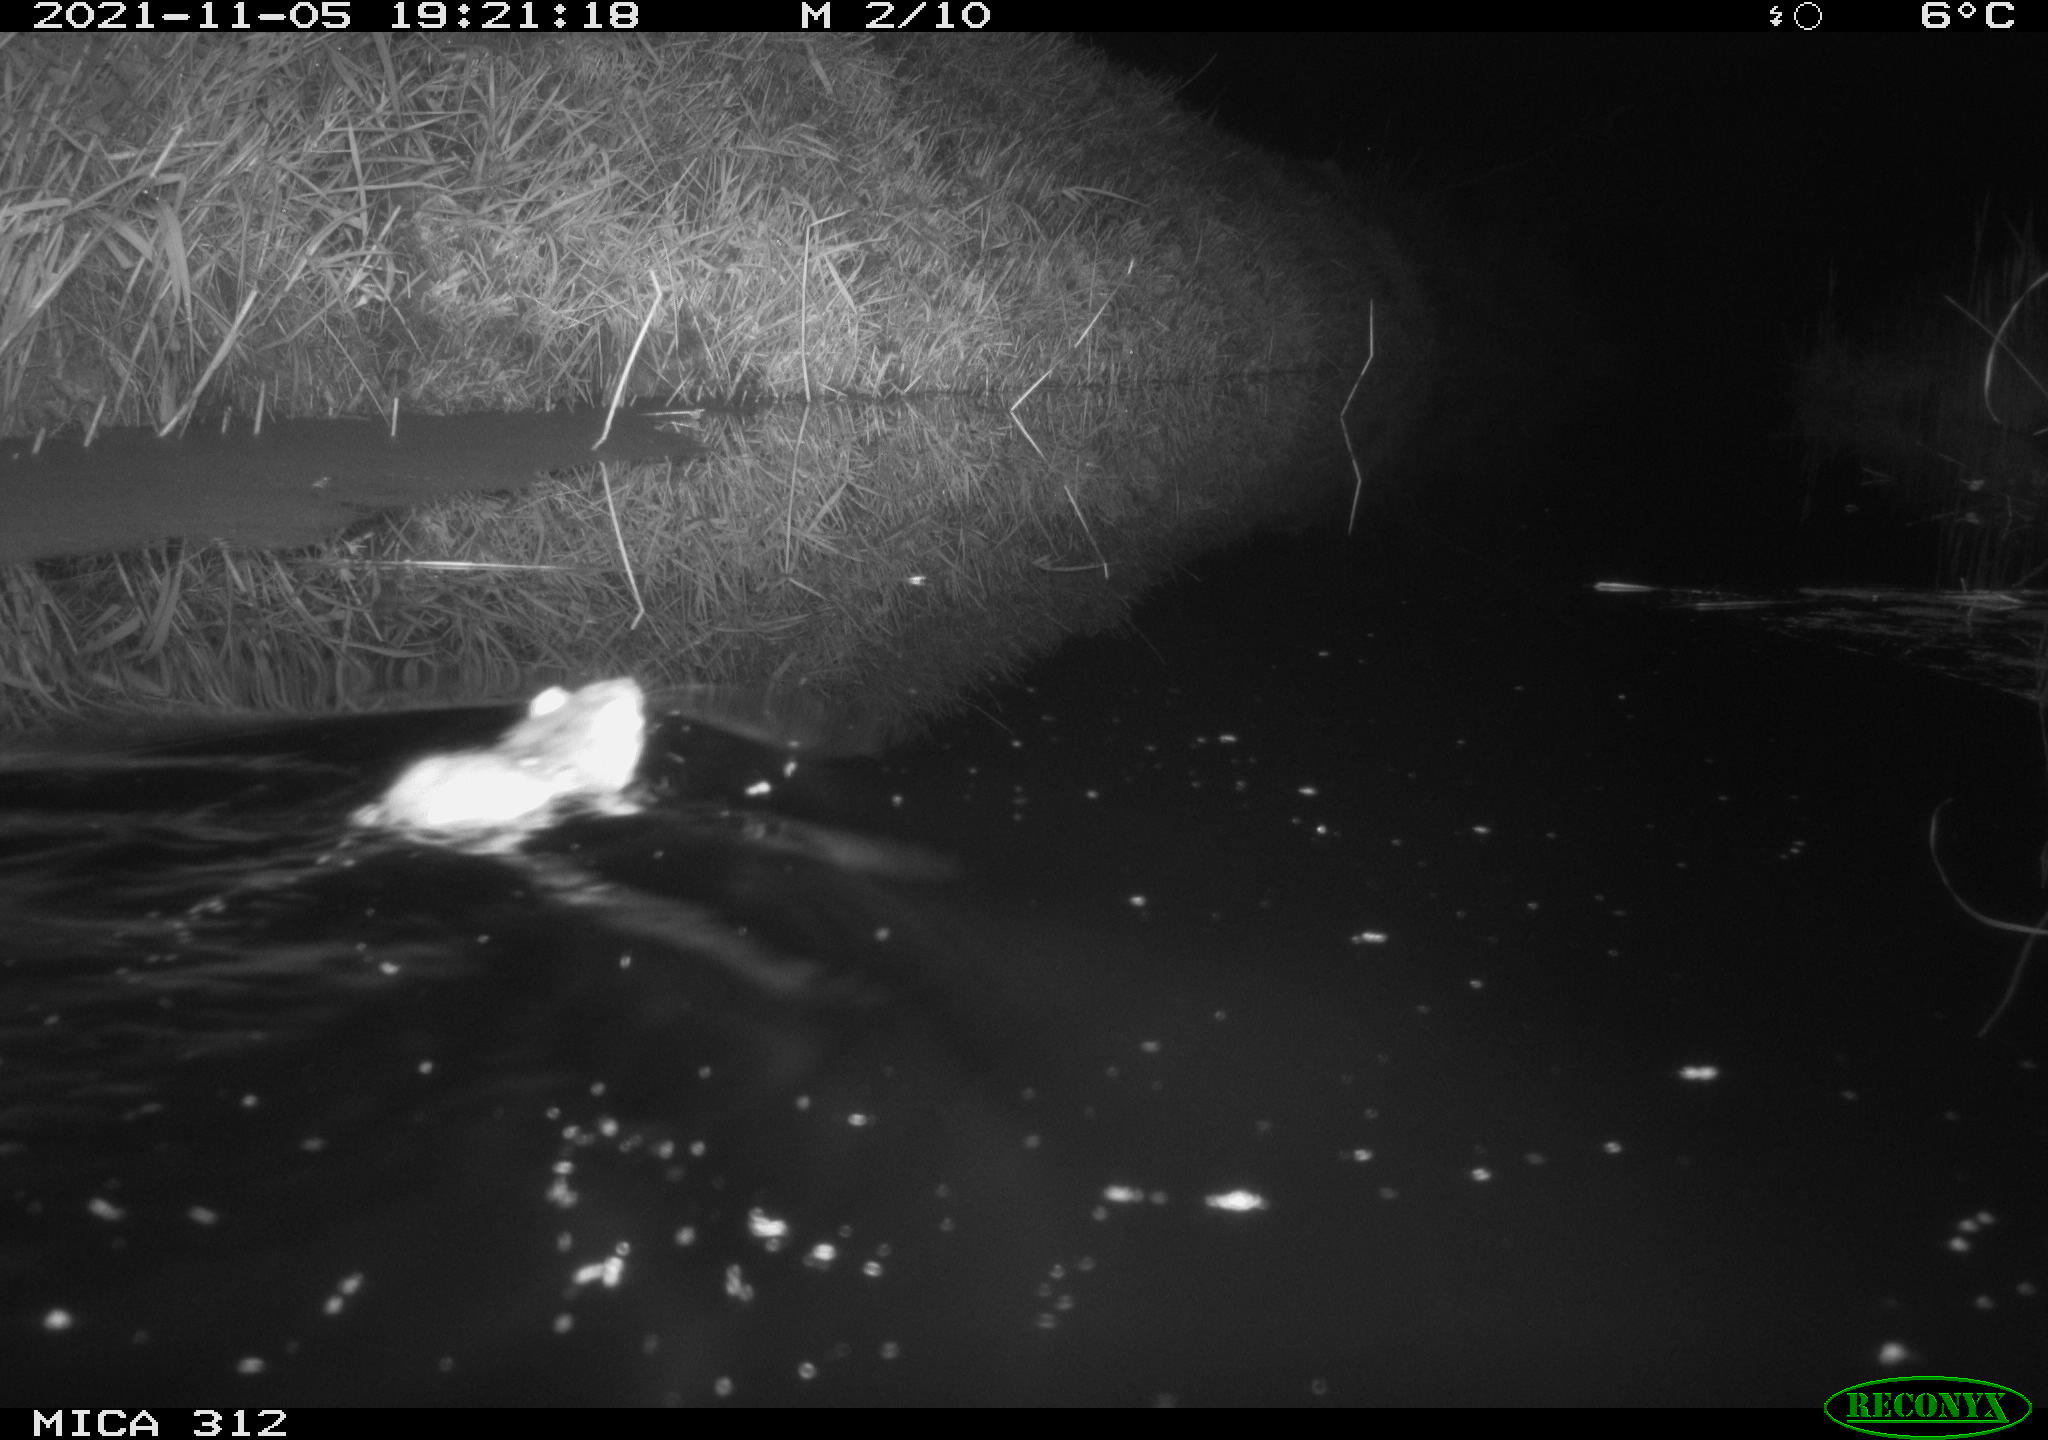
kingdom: Animalia
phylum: Chordata
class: Mammalia
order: Rodentia
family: Muridae
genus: Rattus
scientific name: Rattus norvegicus
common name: Brown rat
